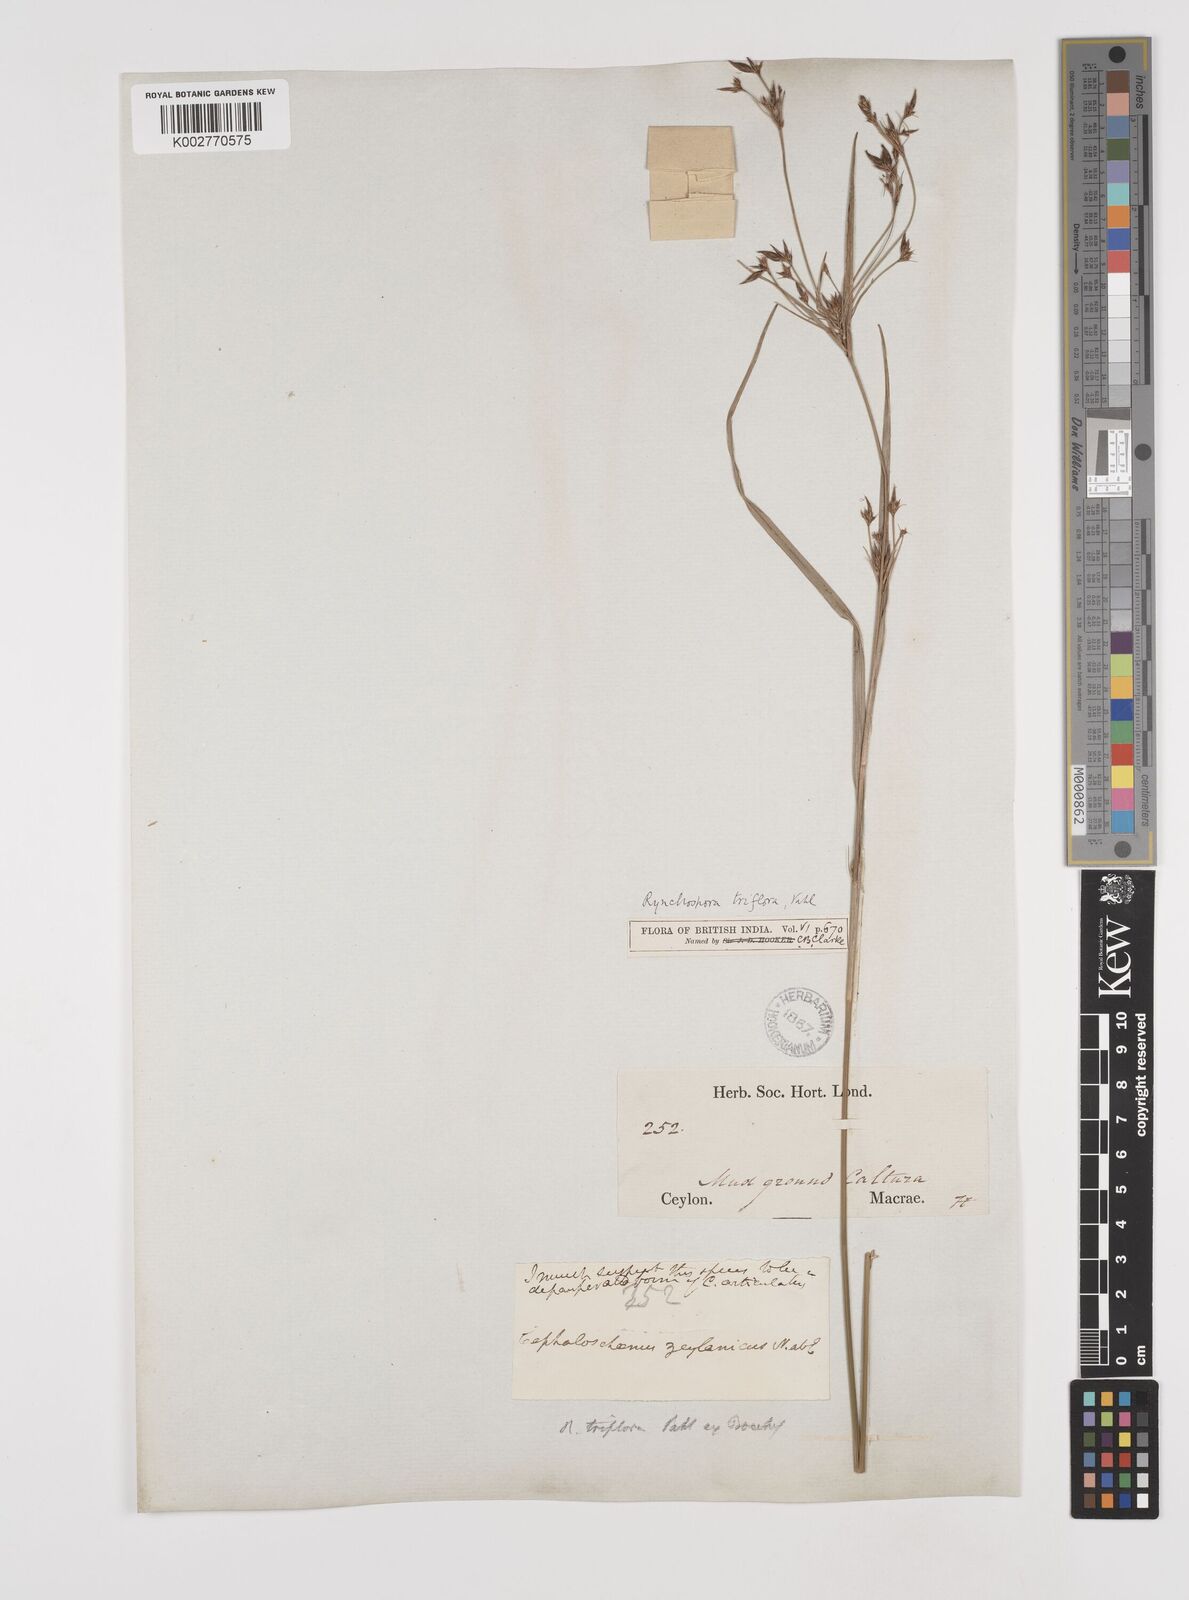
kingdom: Plantae
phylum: Tracheophyta
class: Liliopsida
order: Poales
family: Cyperaceae
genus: Rhynchospora
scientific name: Rhynchospora triflora
